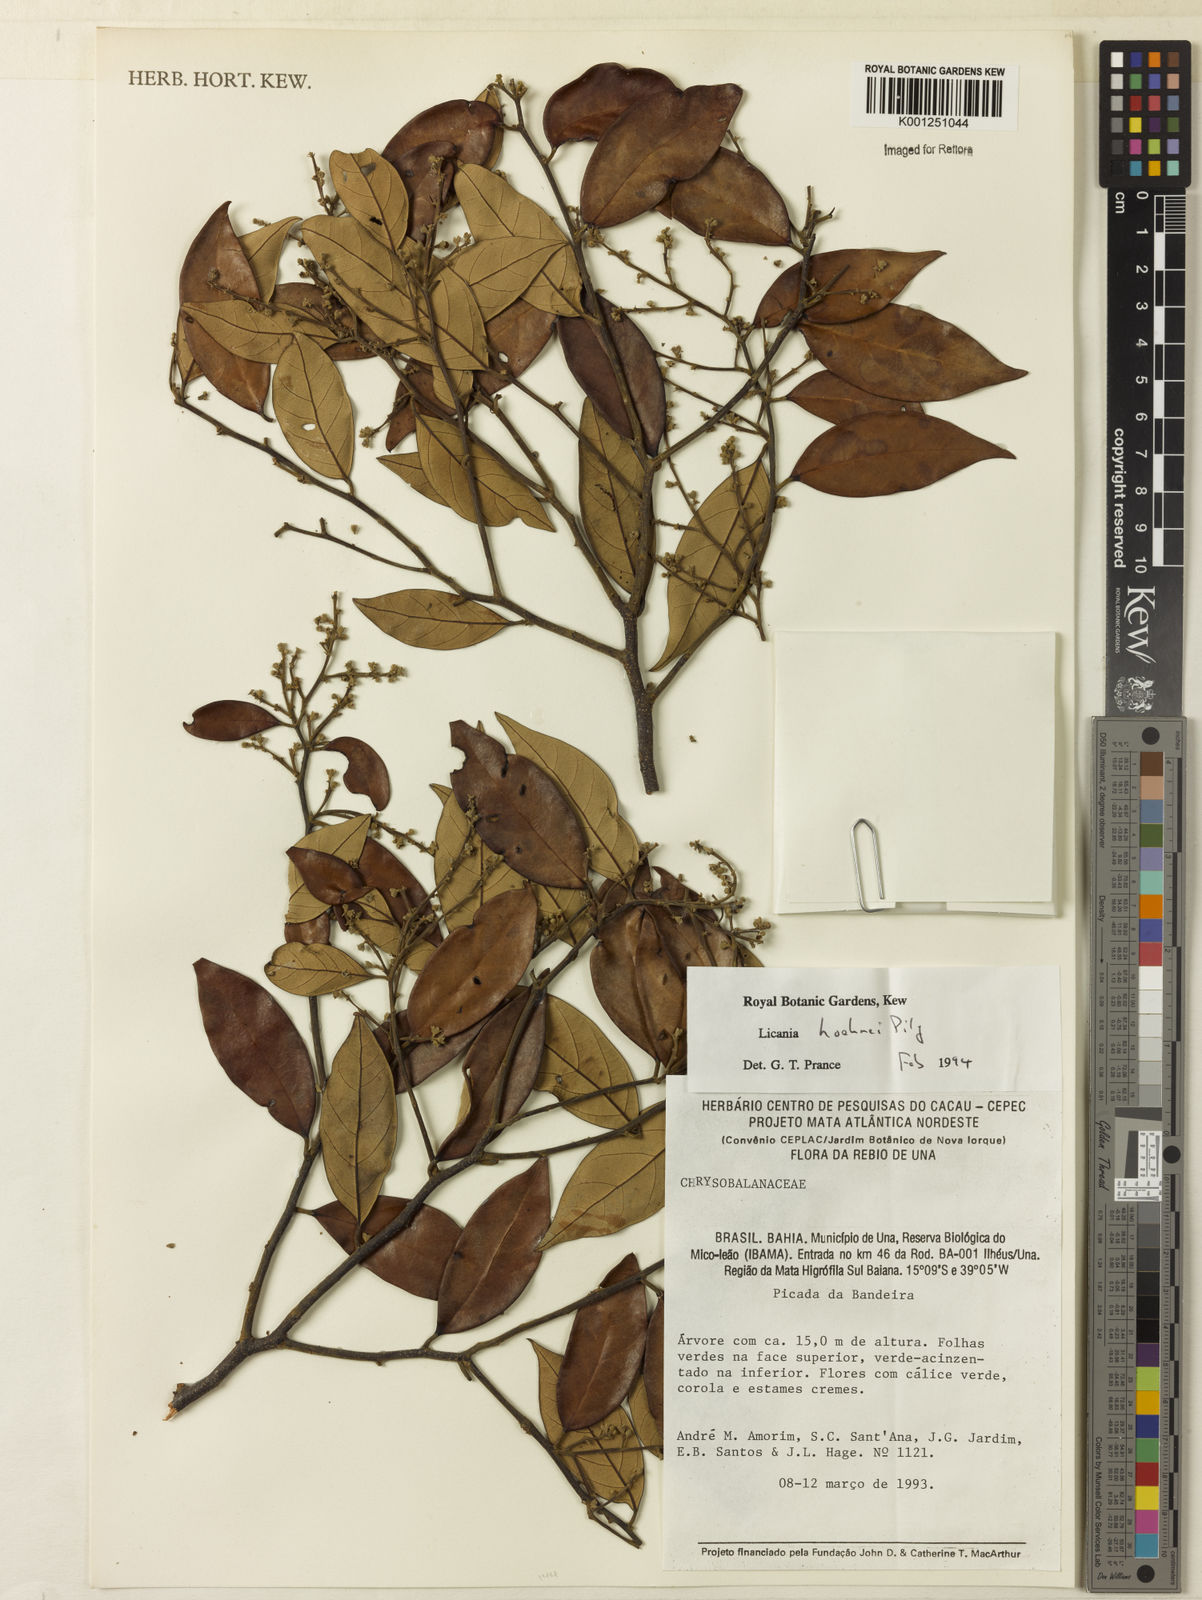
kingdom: Plantae
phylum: Tracheophyta
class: Magnoliopsida
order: Malpighiales
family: Chrysobalanaceae
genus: Licania
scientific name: Licania farinacea
